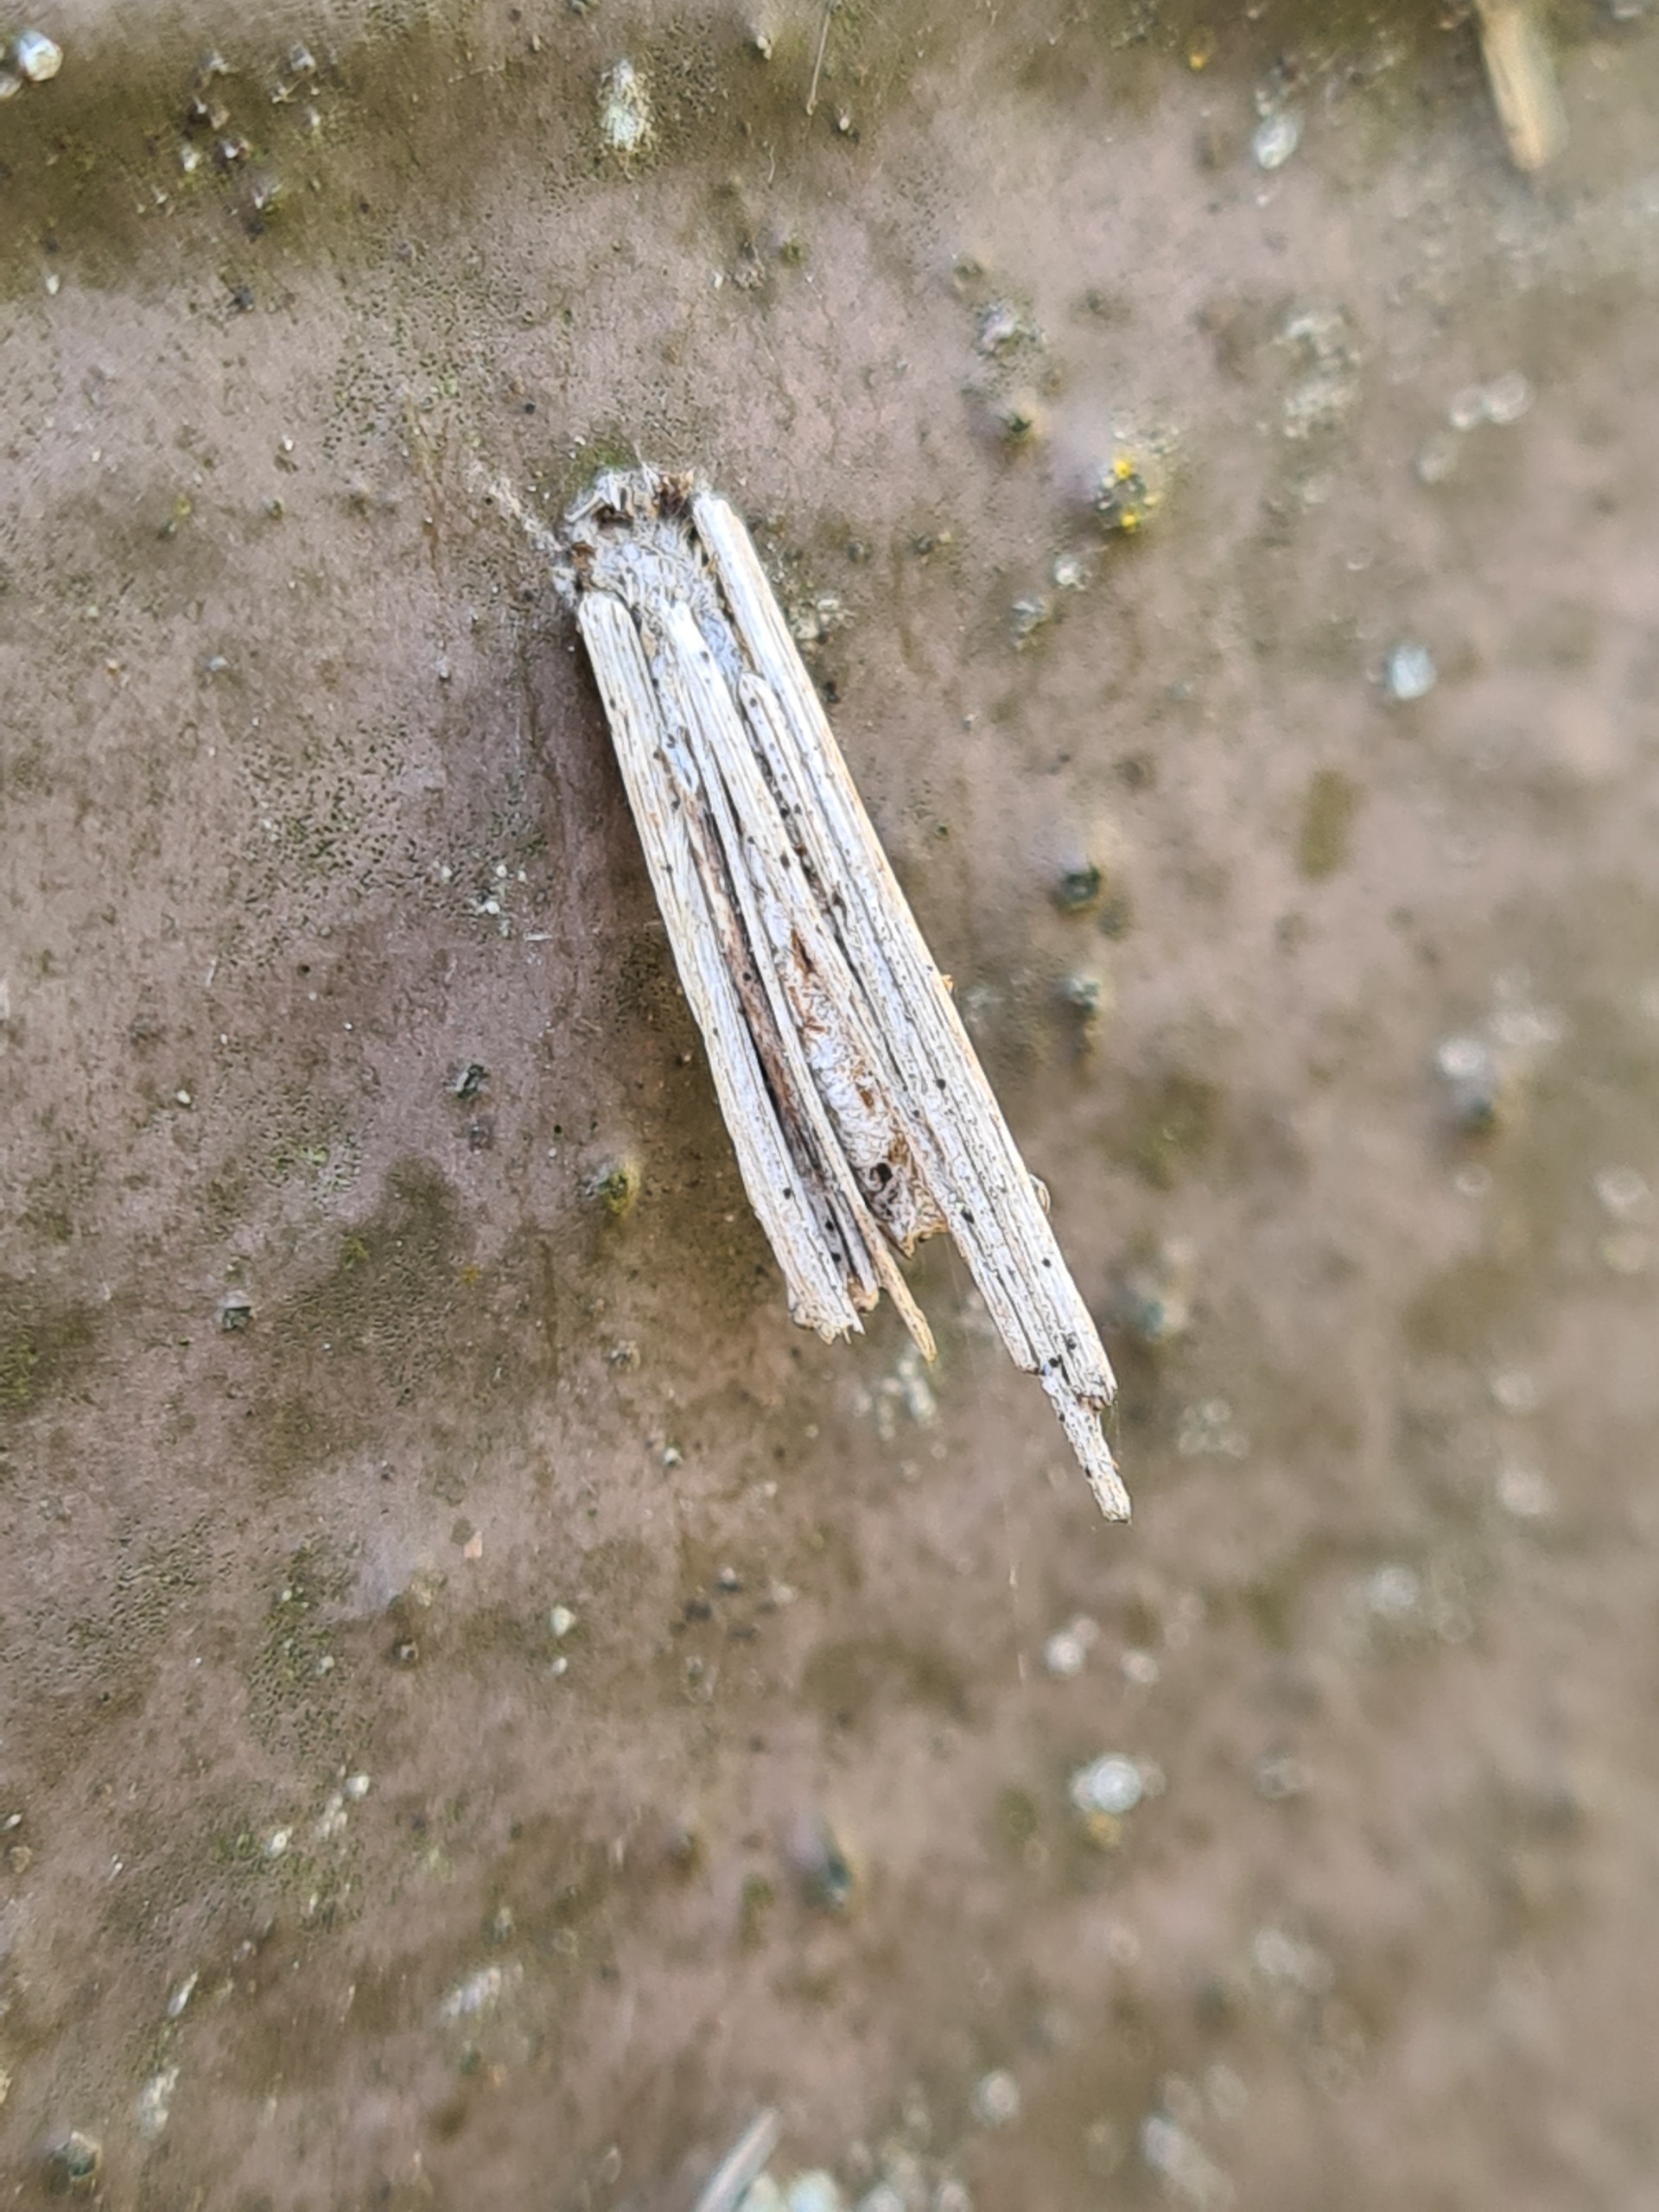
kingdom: Animalia
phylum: Arthropoda
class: Insecta
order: Lepidoptera
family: Psychidae
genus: Psyche
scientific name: Psyche casta
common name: Lille stråsækbærer
